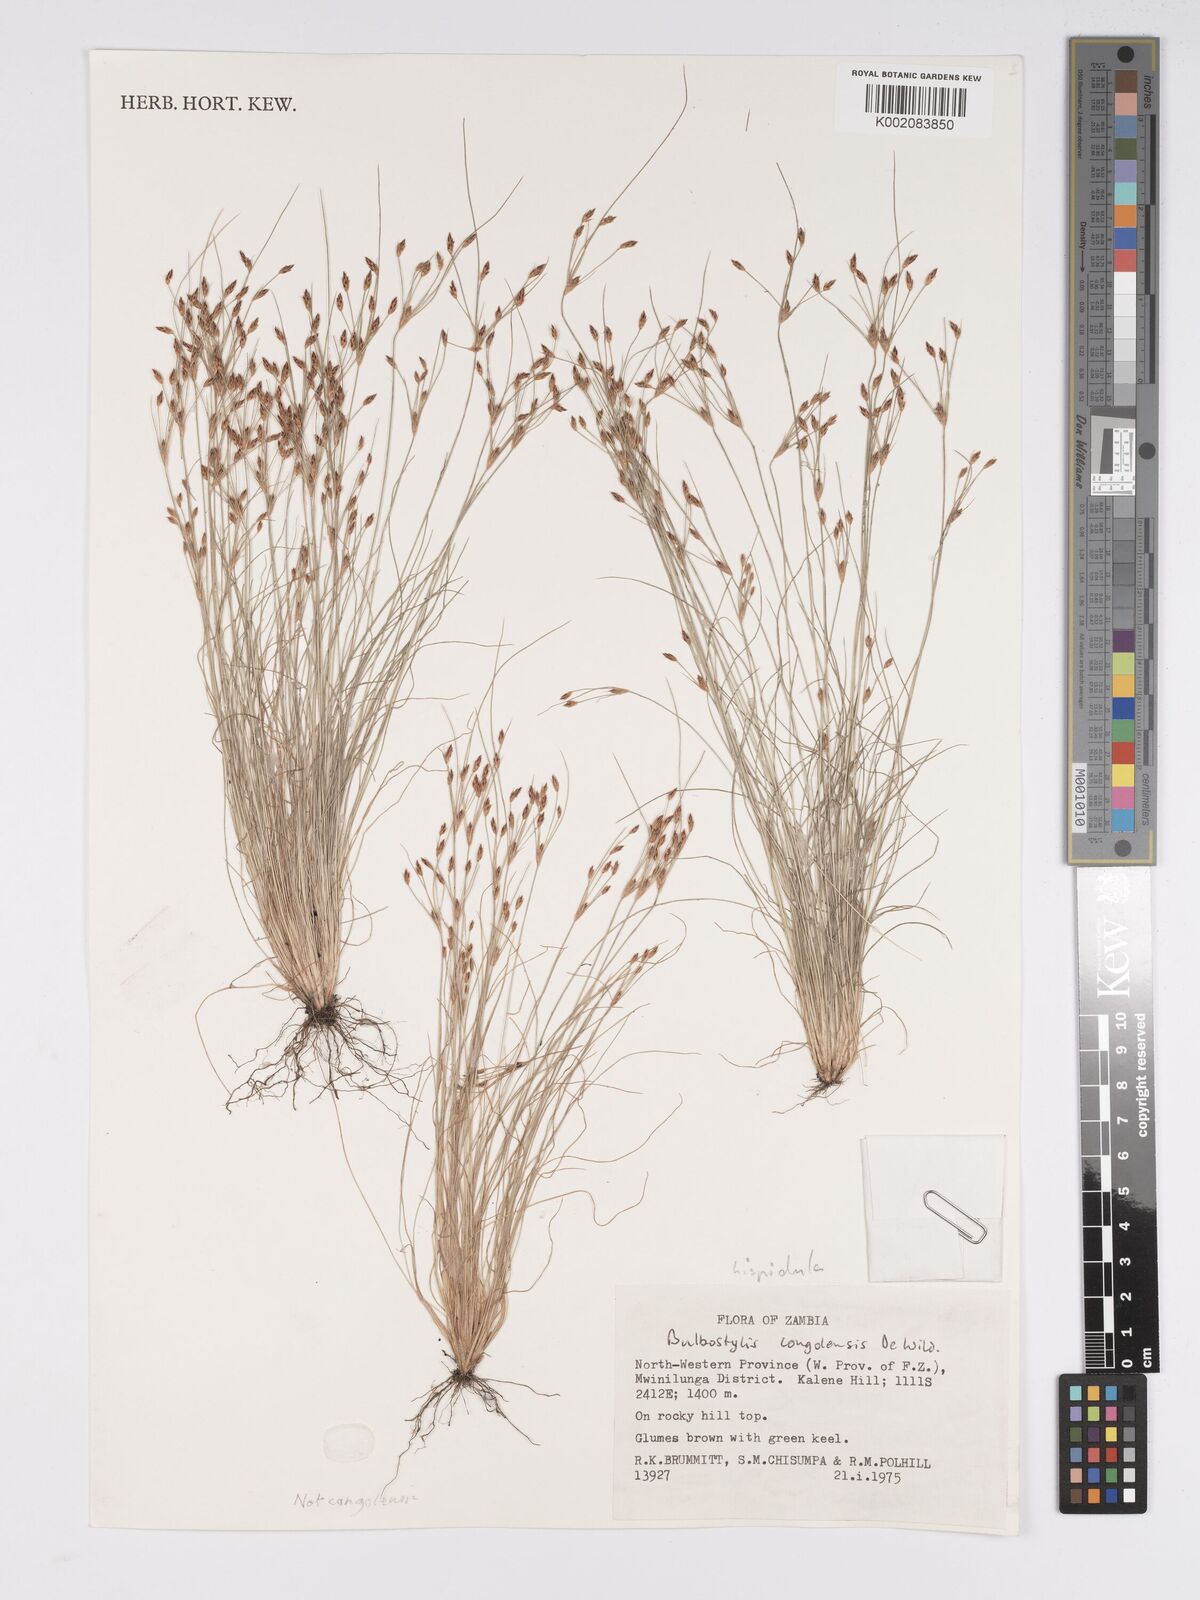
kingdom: Plantae
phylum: Tracheophyta
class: Liliopsida
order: Poales
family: Cyperaceae
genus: Bulbostylis
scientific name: Bulbostylis hispidula
